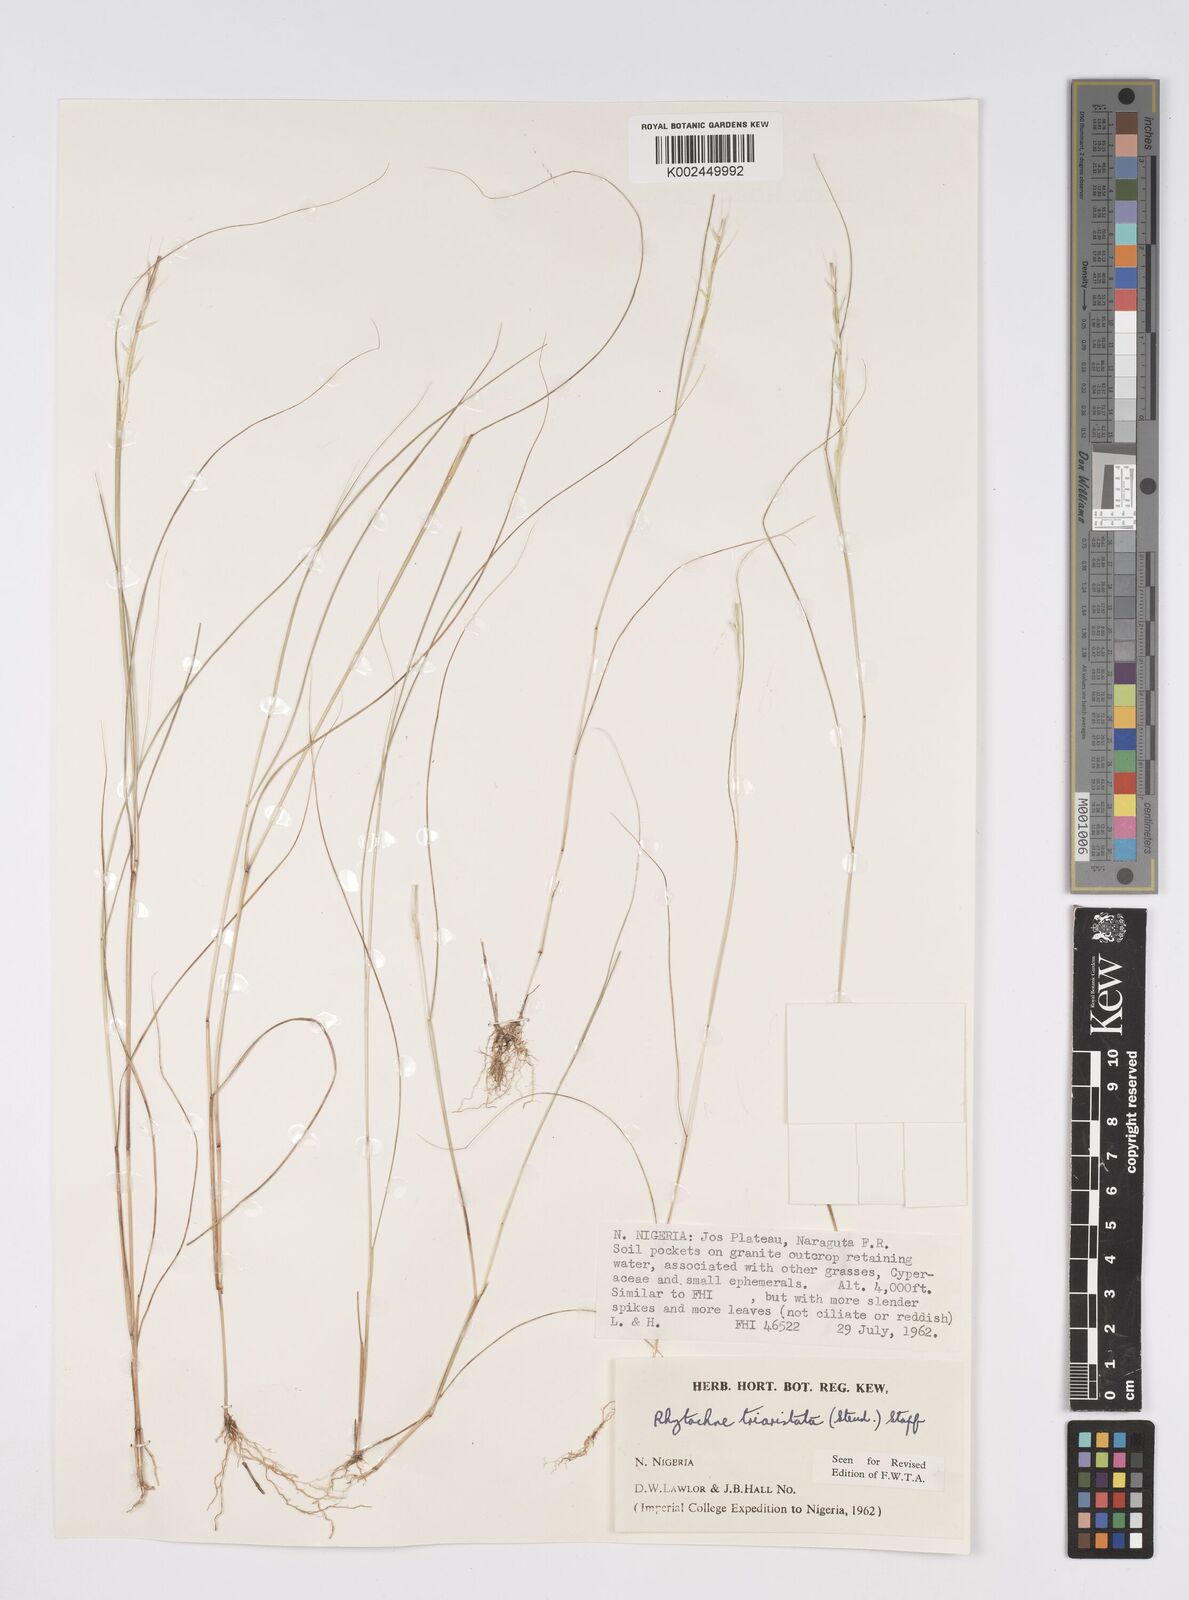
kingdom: Plantae
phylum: Tracheophyta
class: Liliopsida
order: Poales
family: Poaceae
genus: Rhytachne
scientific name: Rhytachne triaristata
